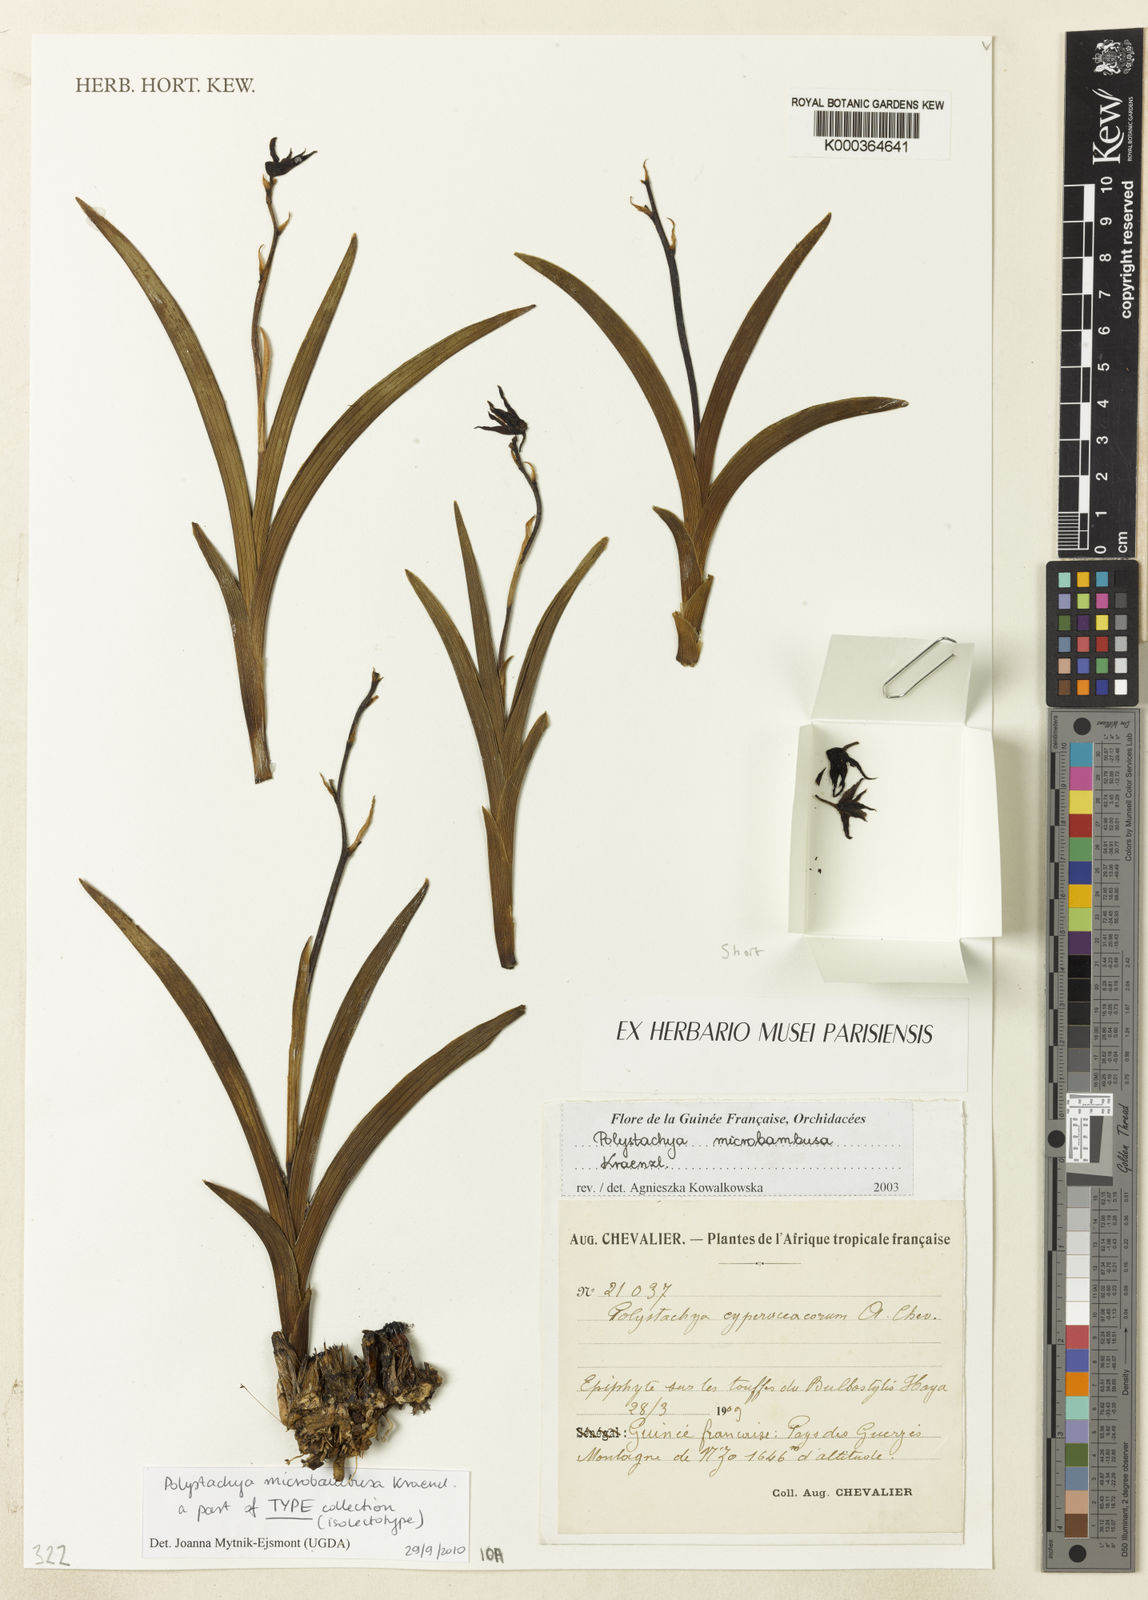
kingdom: Plantae
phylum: Tracheophyta
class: Liliopsida
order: Asparagales
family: Orchidaceae
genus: Polystachya
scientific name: Polystachya microbambusa
